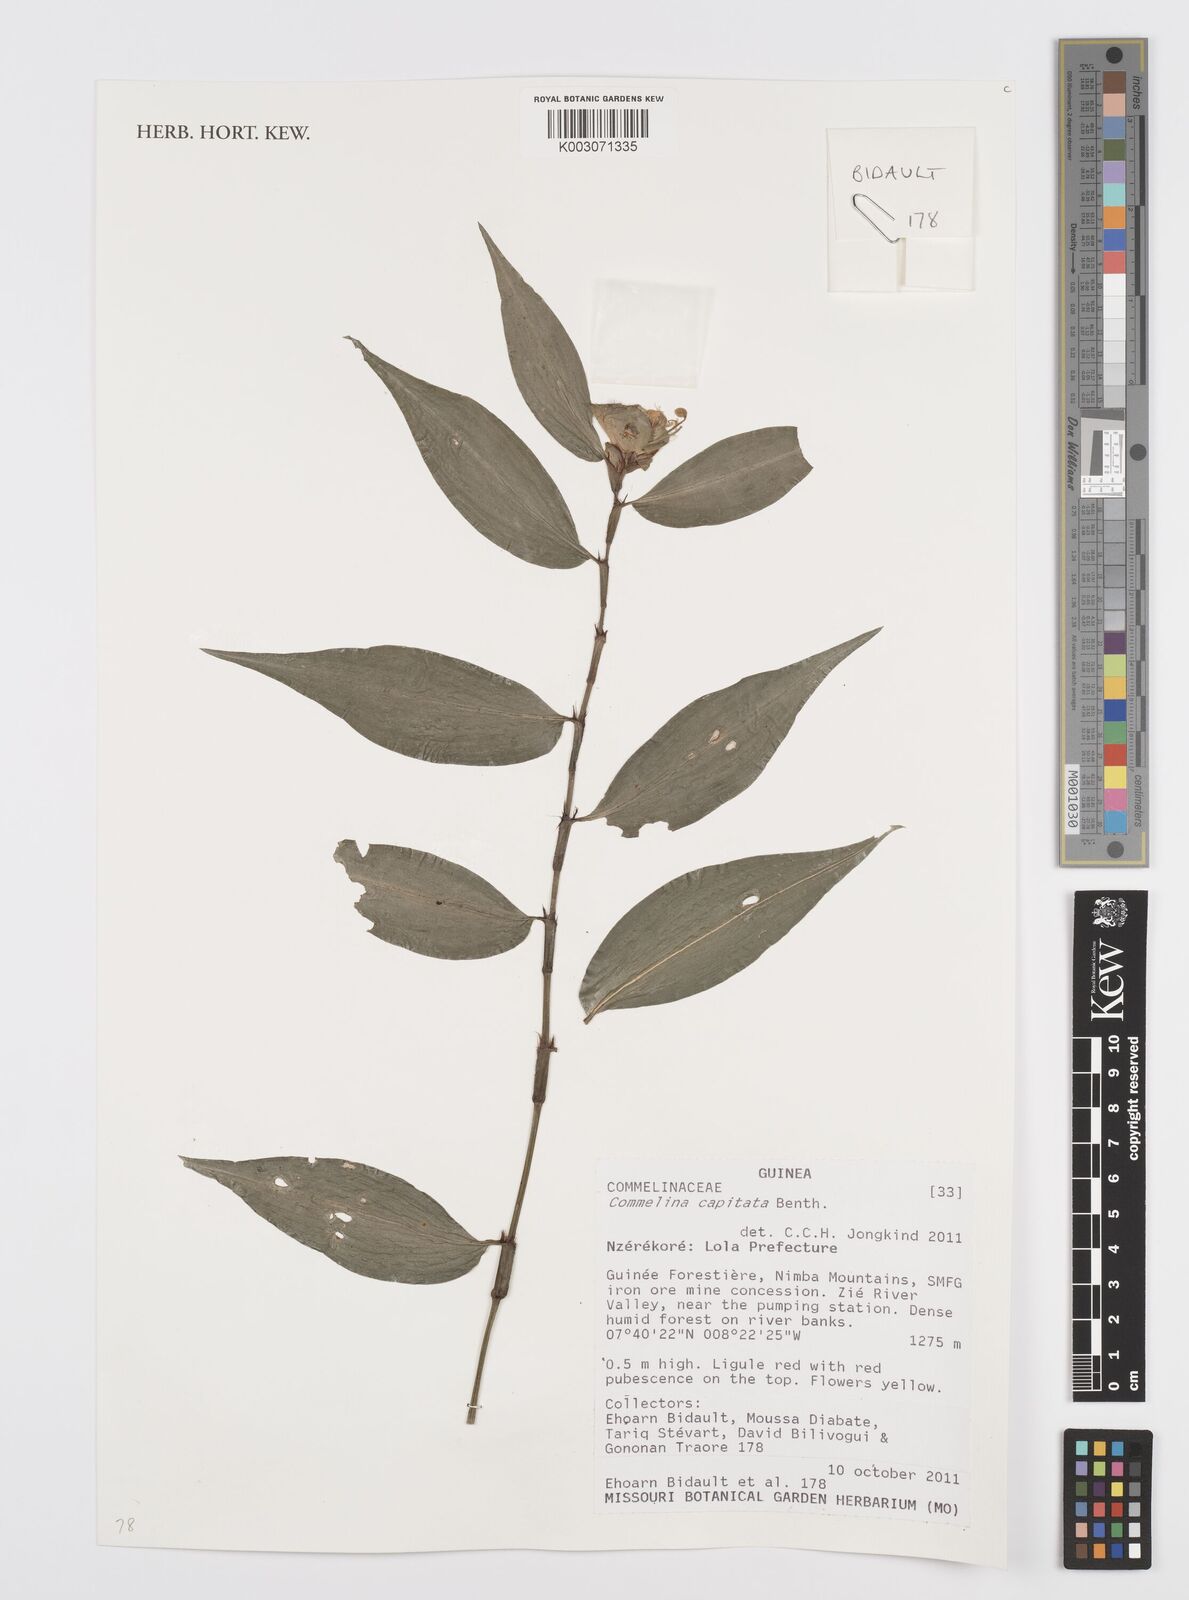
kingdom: Plantae
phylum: Tracheophyta
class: Liliopsida
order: Commelinales
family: Commelinaceae
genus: Commelina
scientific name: Commelina capitata
